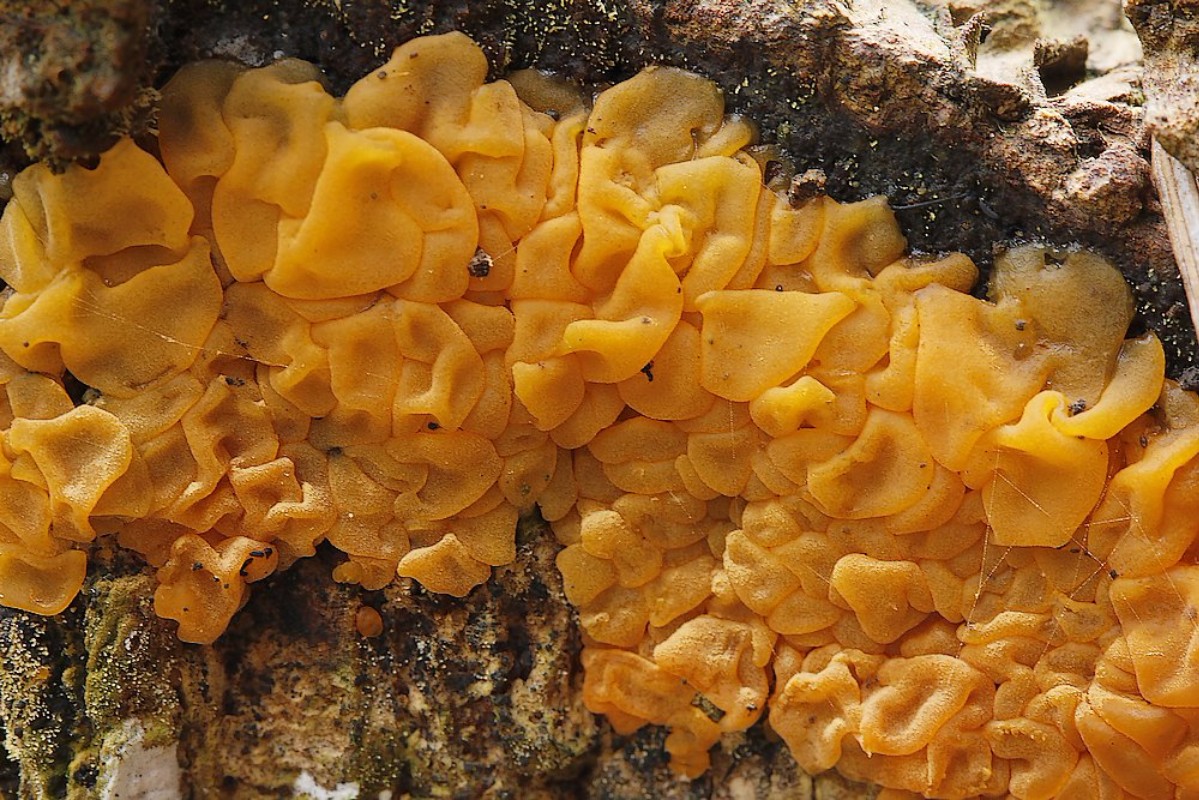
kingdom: Fungi
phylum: Basidiomycota
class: Dacrymycetes
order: Dacrymycetales
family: Dacrymycetaceae
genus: Dacrymyces
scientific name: Dacrymyces
